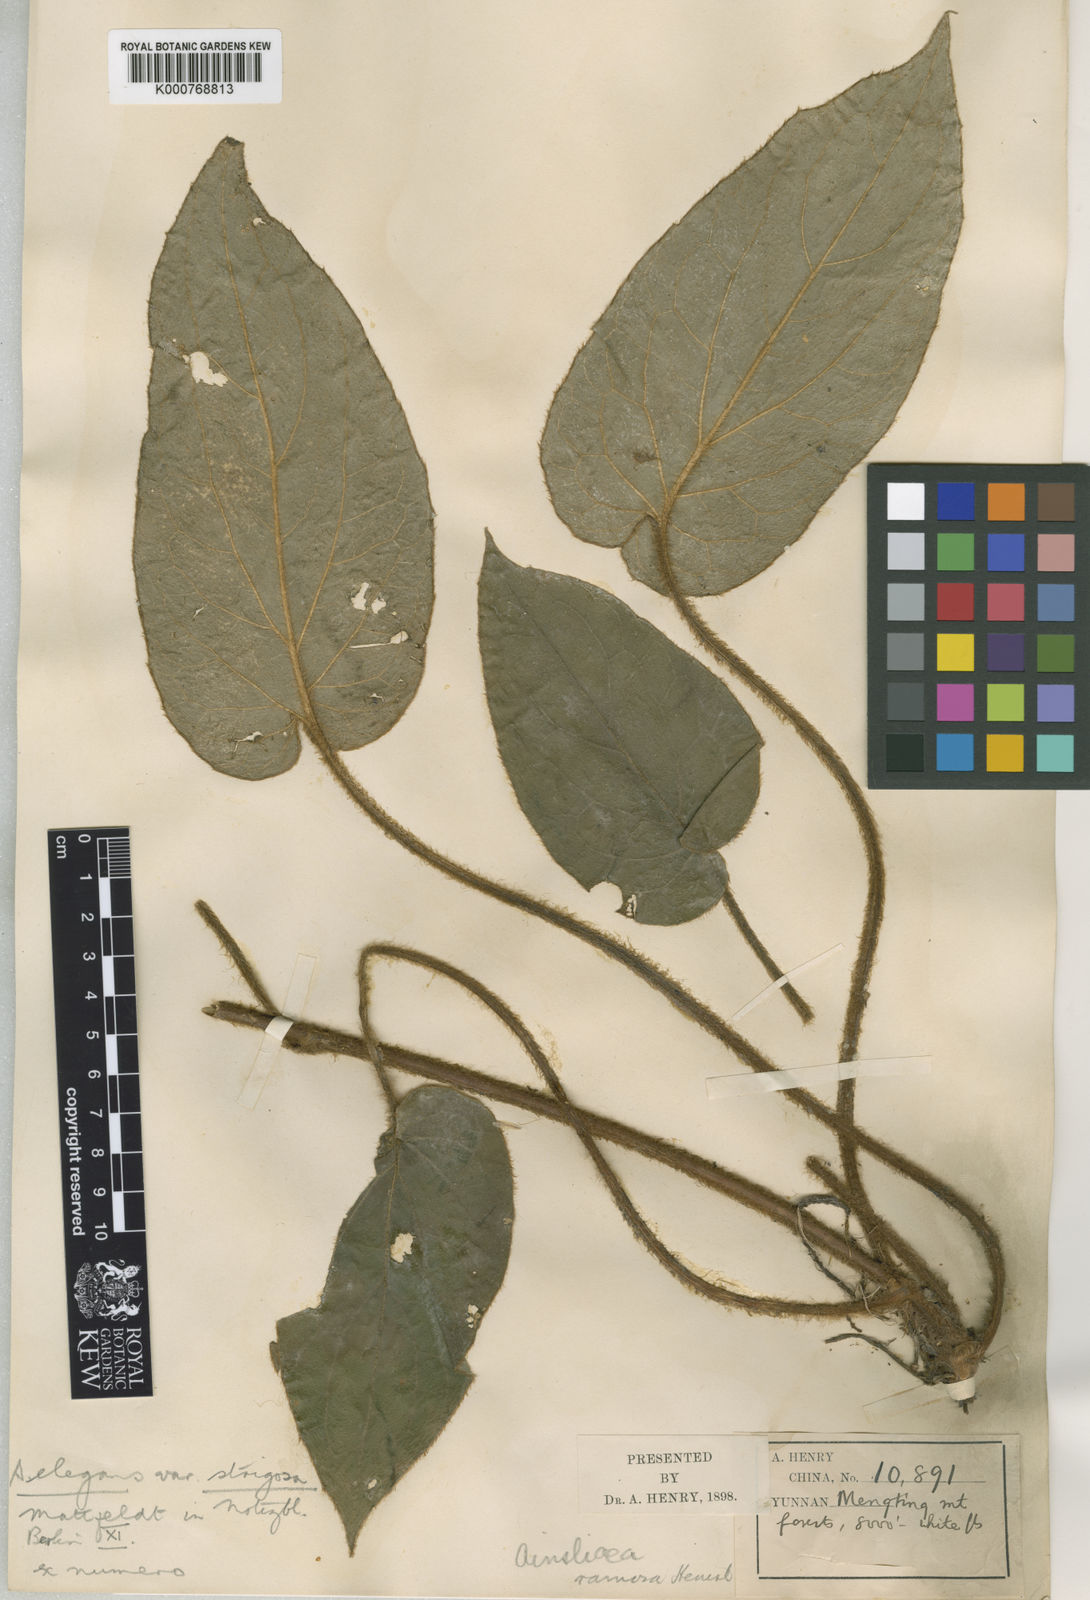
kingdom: Plantae
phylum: Tracheophyta
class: Magnoliopsida
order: Asterales
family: Asteraceae
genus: Ainsliaea
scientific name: Ainsliaea elegans
